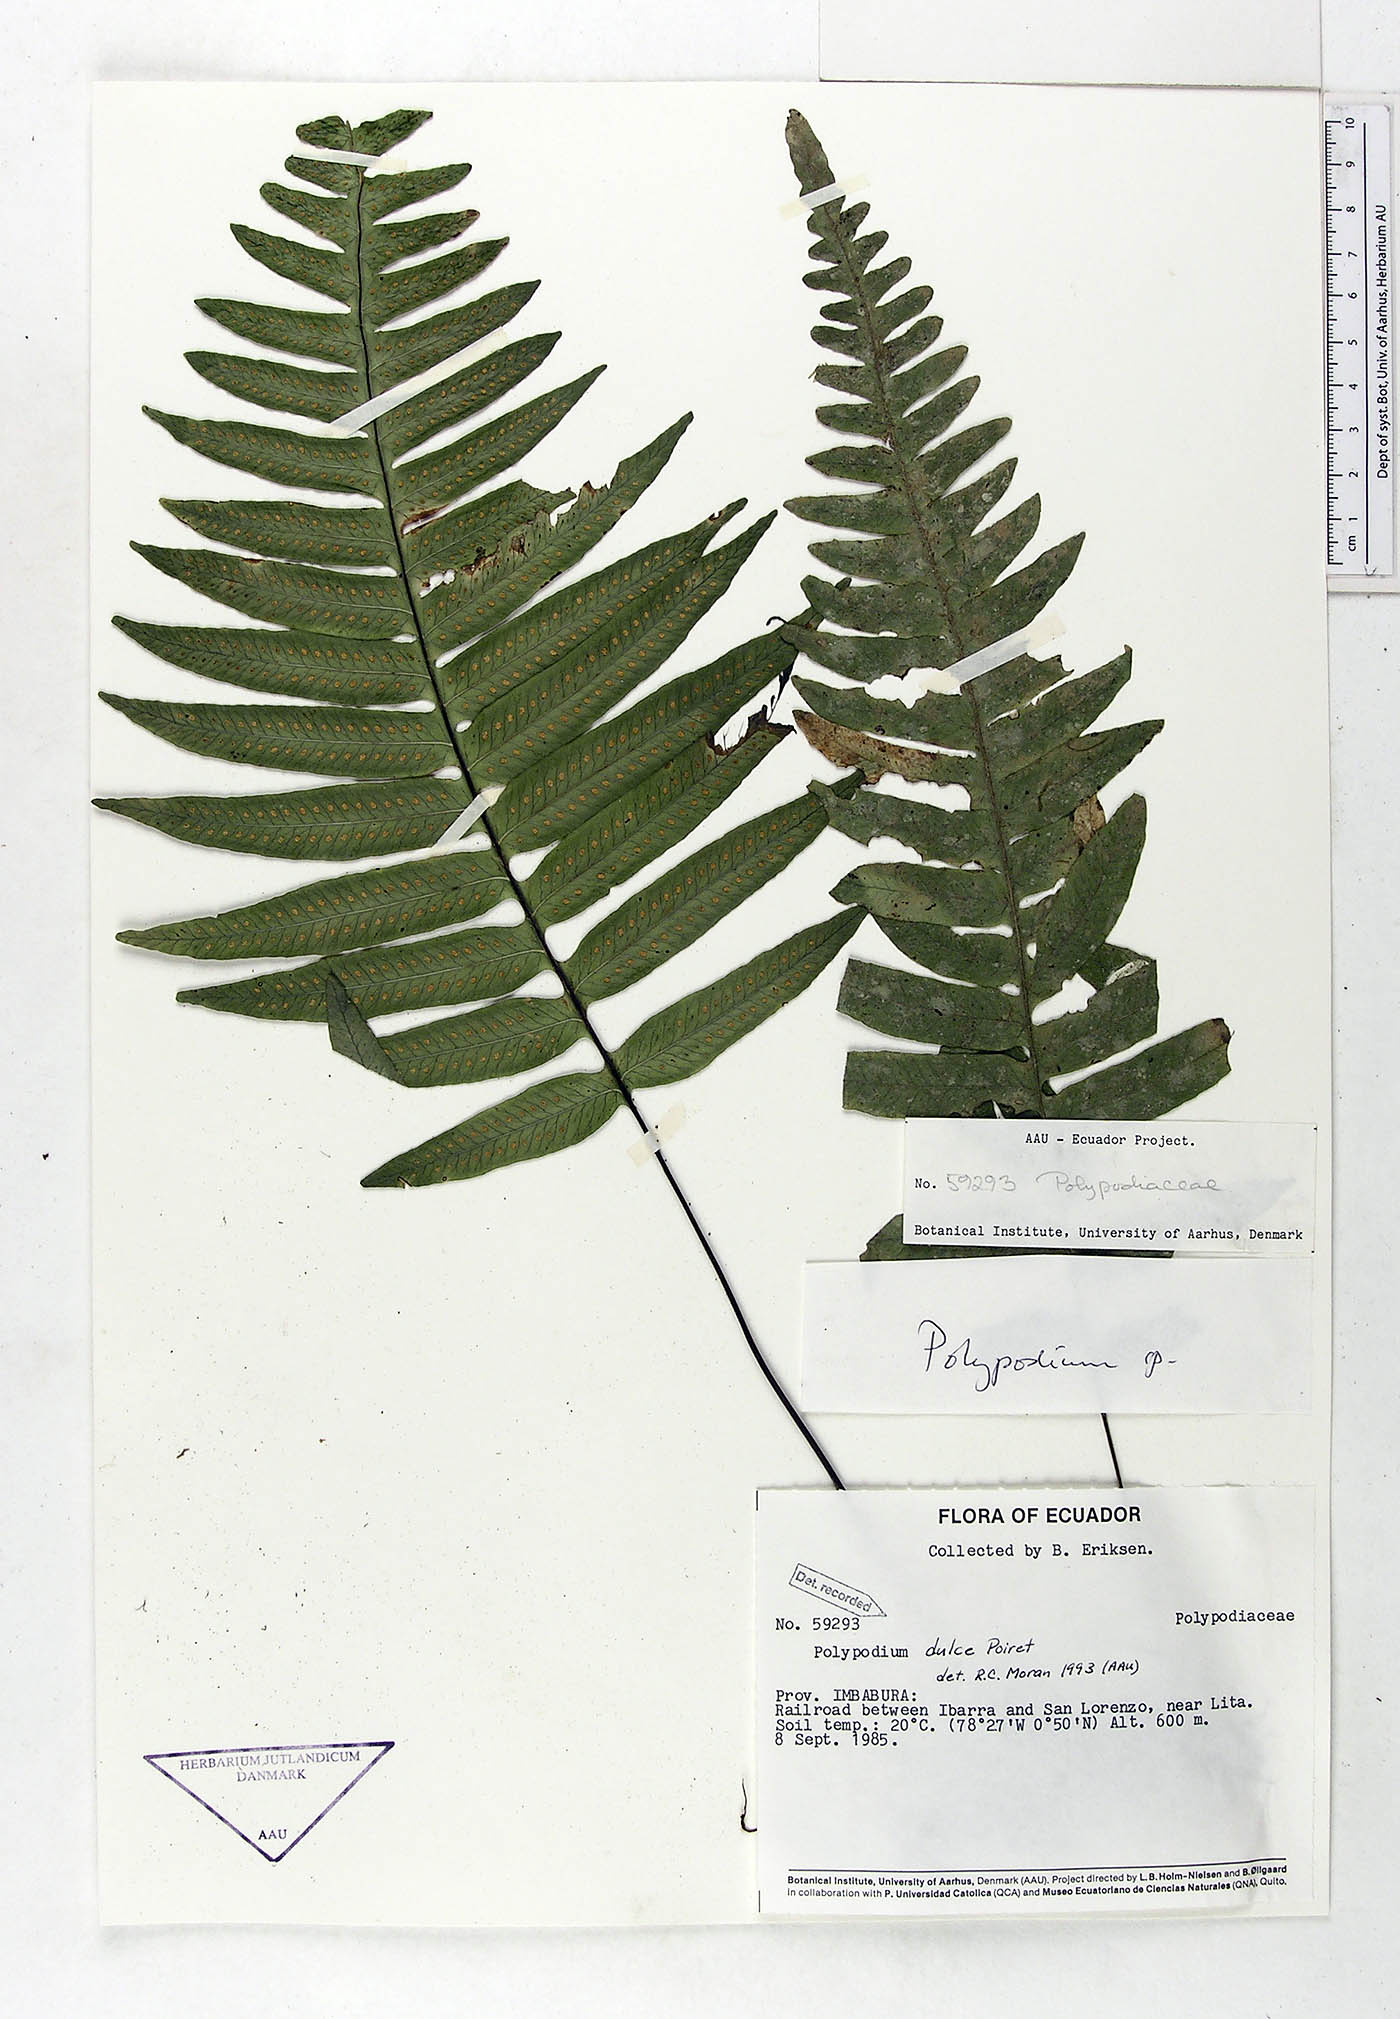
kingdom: Plantae
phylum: Tracheophyta
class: Polypodiopsida
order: Polypodiales
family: Polypodiaceae
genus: Pecluma
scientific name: Pecluma dulcis
